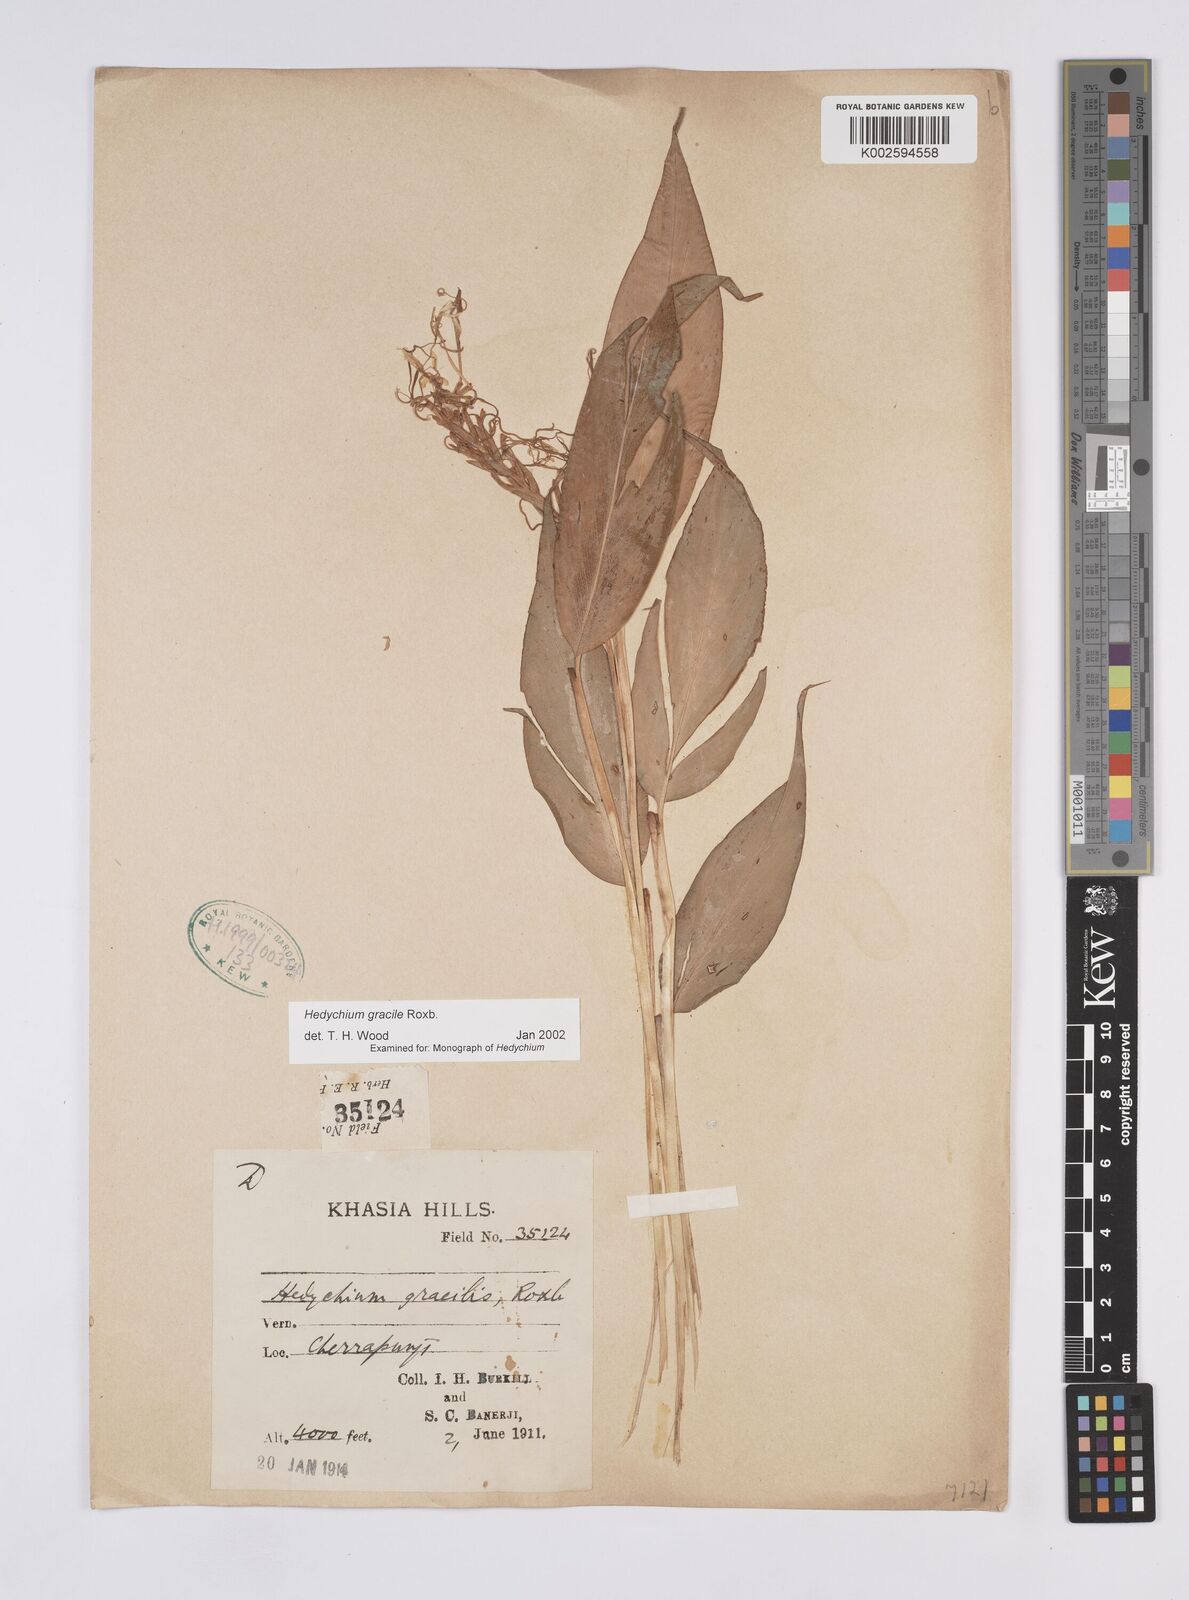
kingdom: Plantae
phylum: Tracheophyta
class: Liliopsida
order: Zingiberales
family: Zingiberaceae
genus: Hedychium
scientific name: Hedychium glaucum
